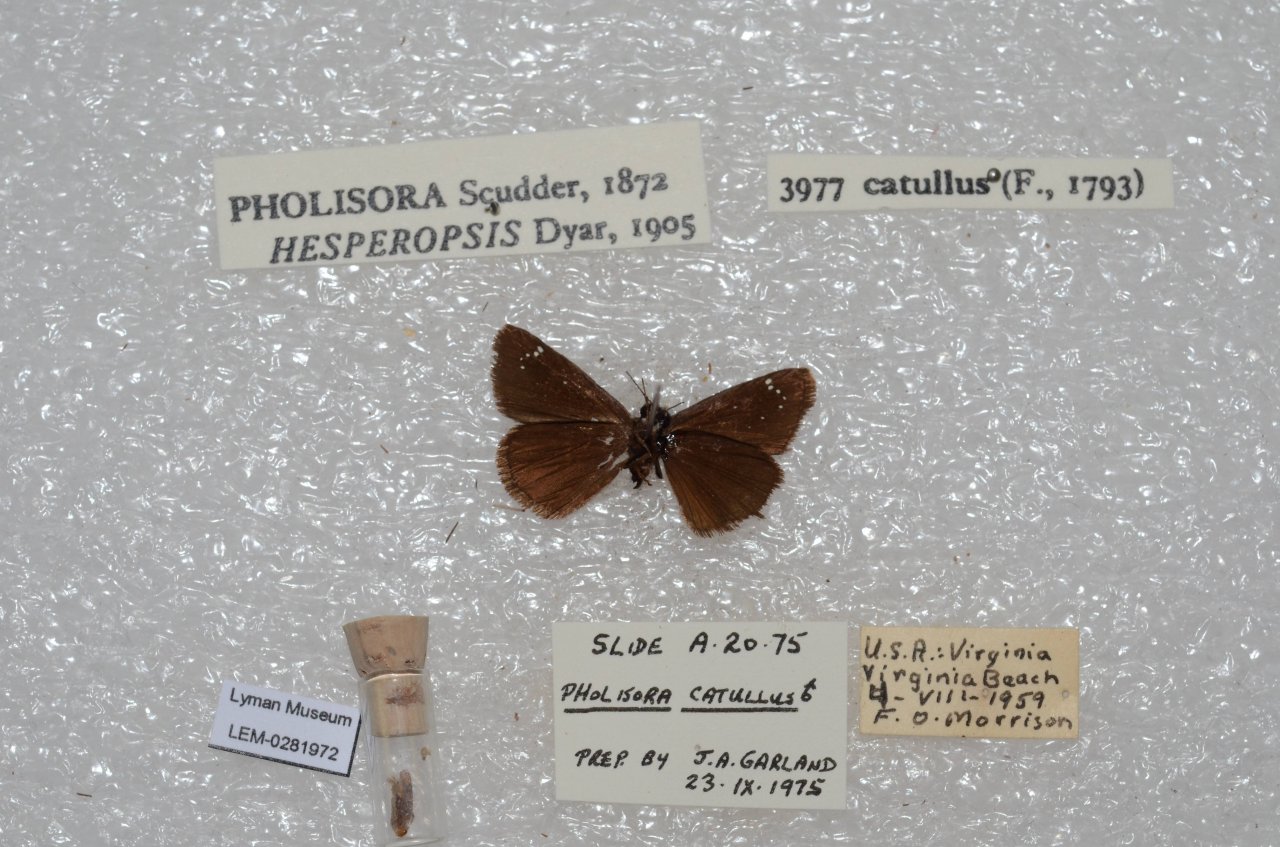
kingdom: Animalia
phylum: Arthropoda
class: Insecta
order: Lepidoptera
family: Hesperiidae
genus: Pholisora
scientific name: Pholisora catullus
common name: Common Sootywing
